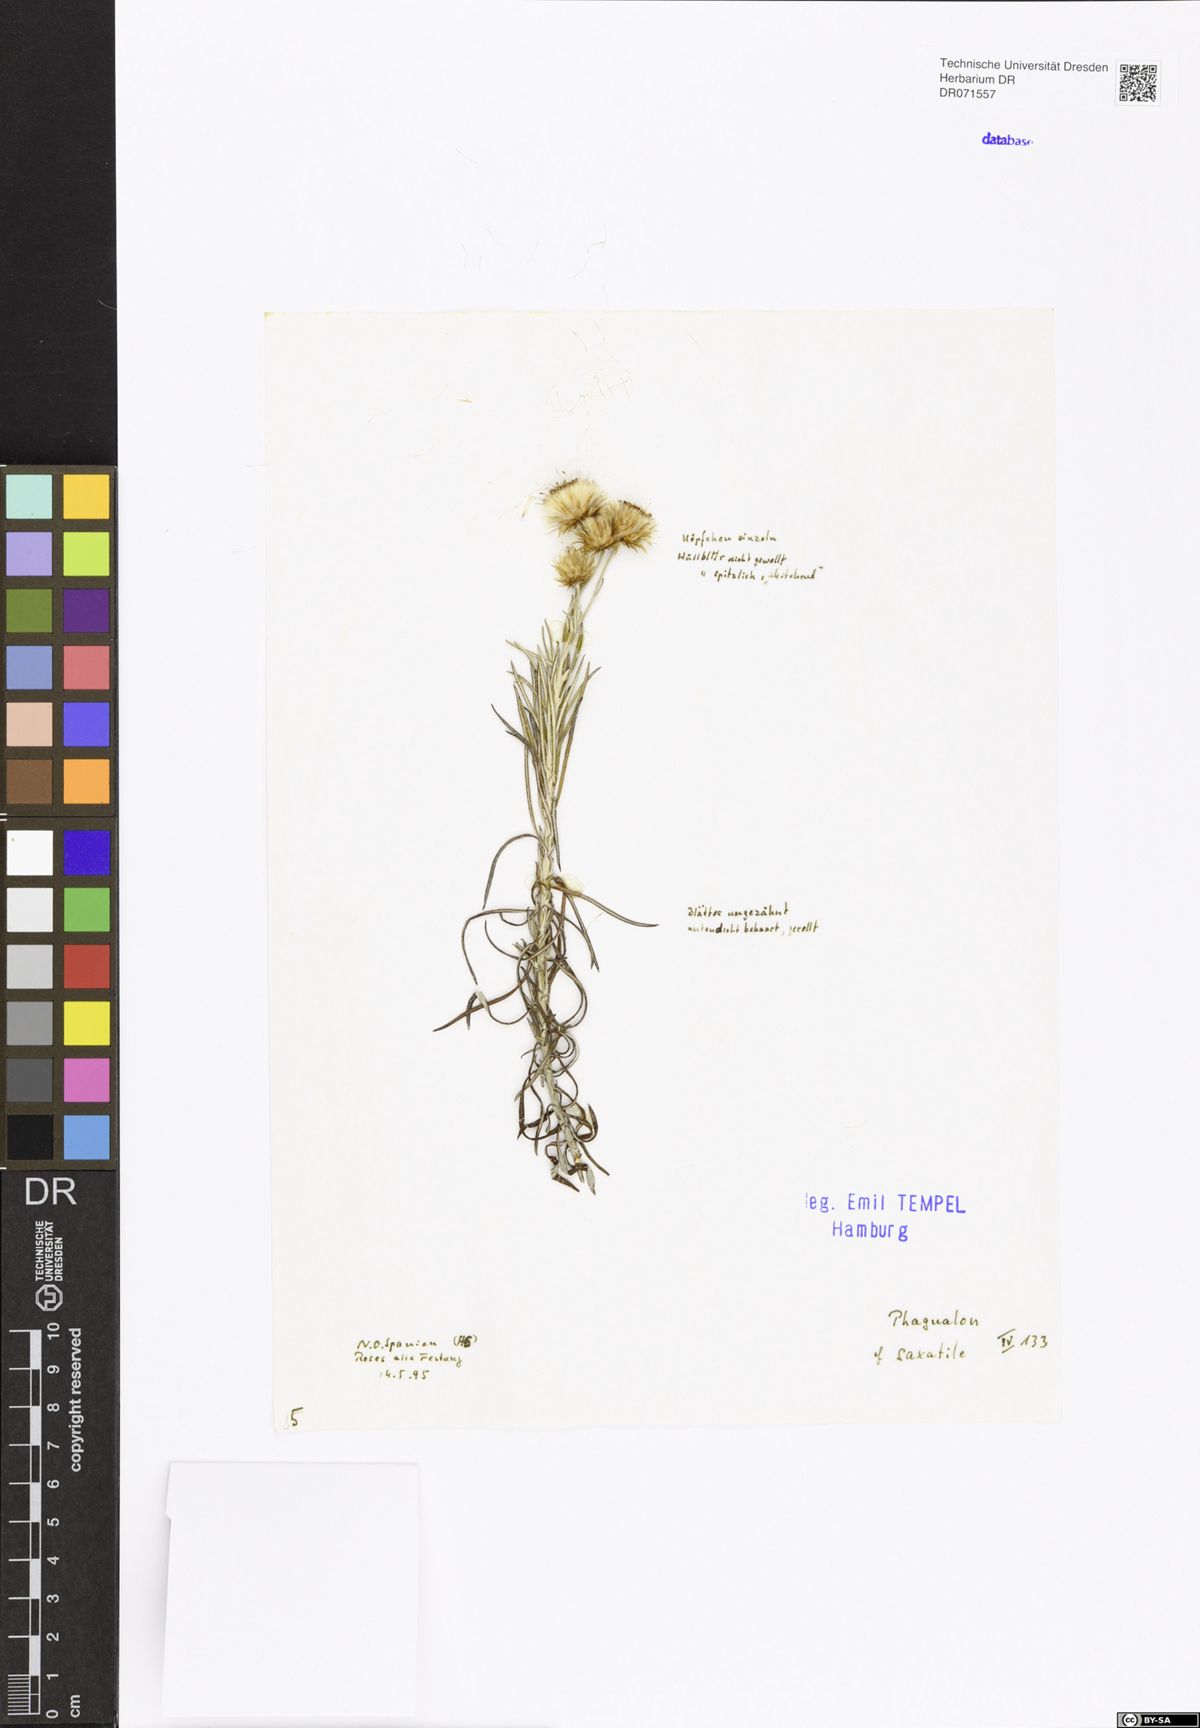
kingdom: Plantae
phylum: Tracheophyta
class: Magnoliopsida
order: Asterales
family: Asteraceae
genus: Phagnalon
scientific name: Phagnalon saxatile
